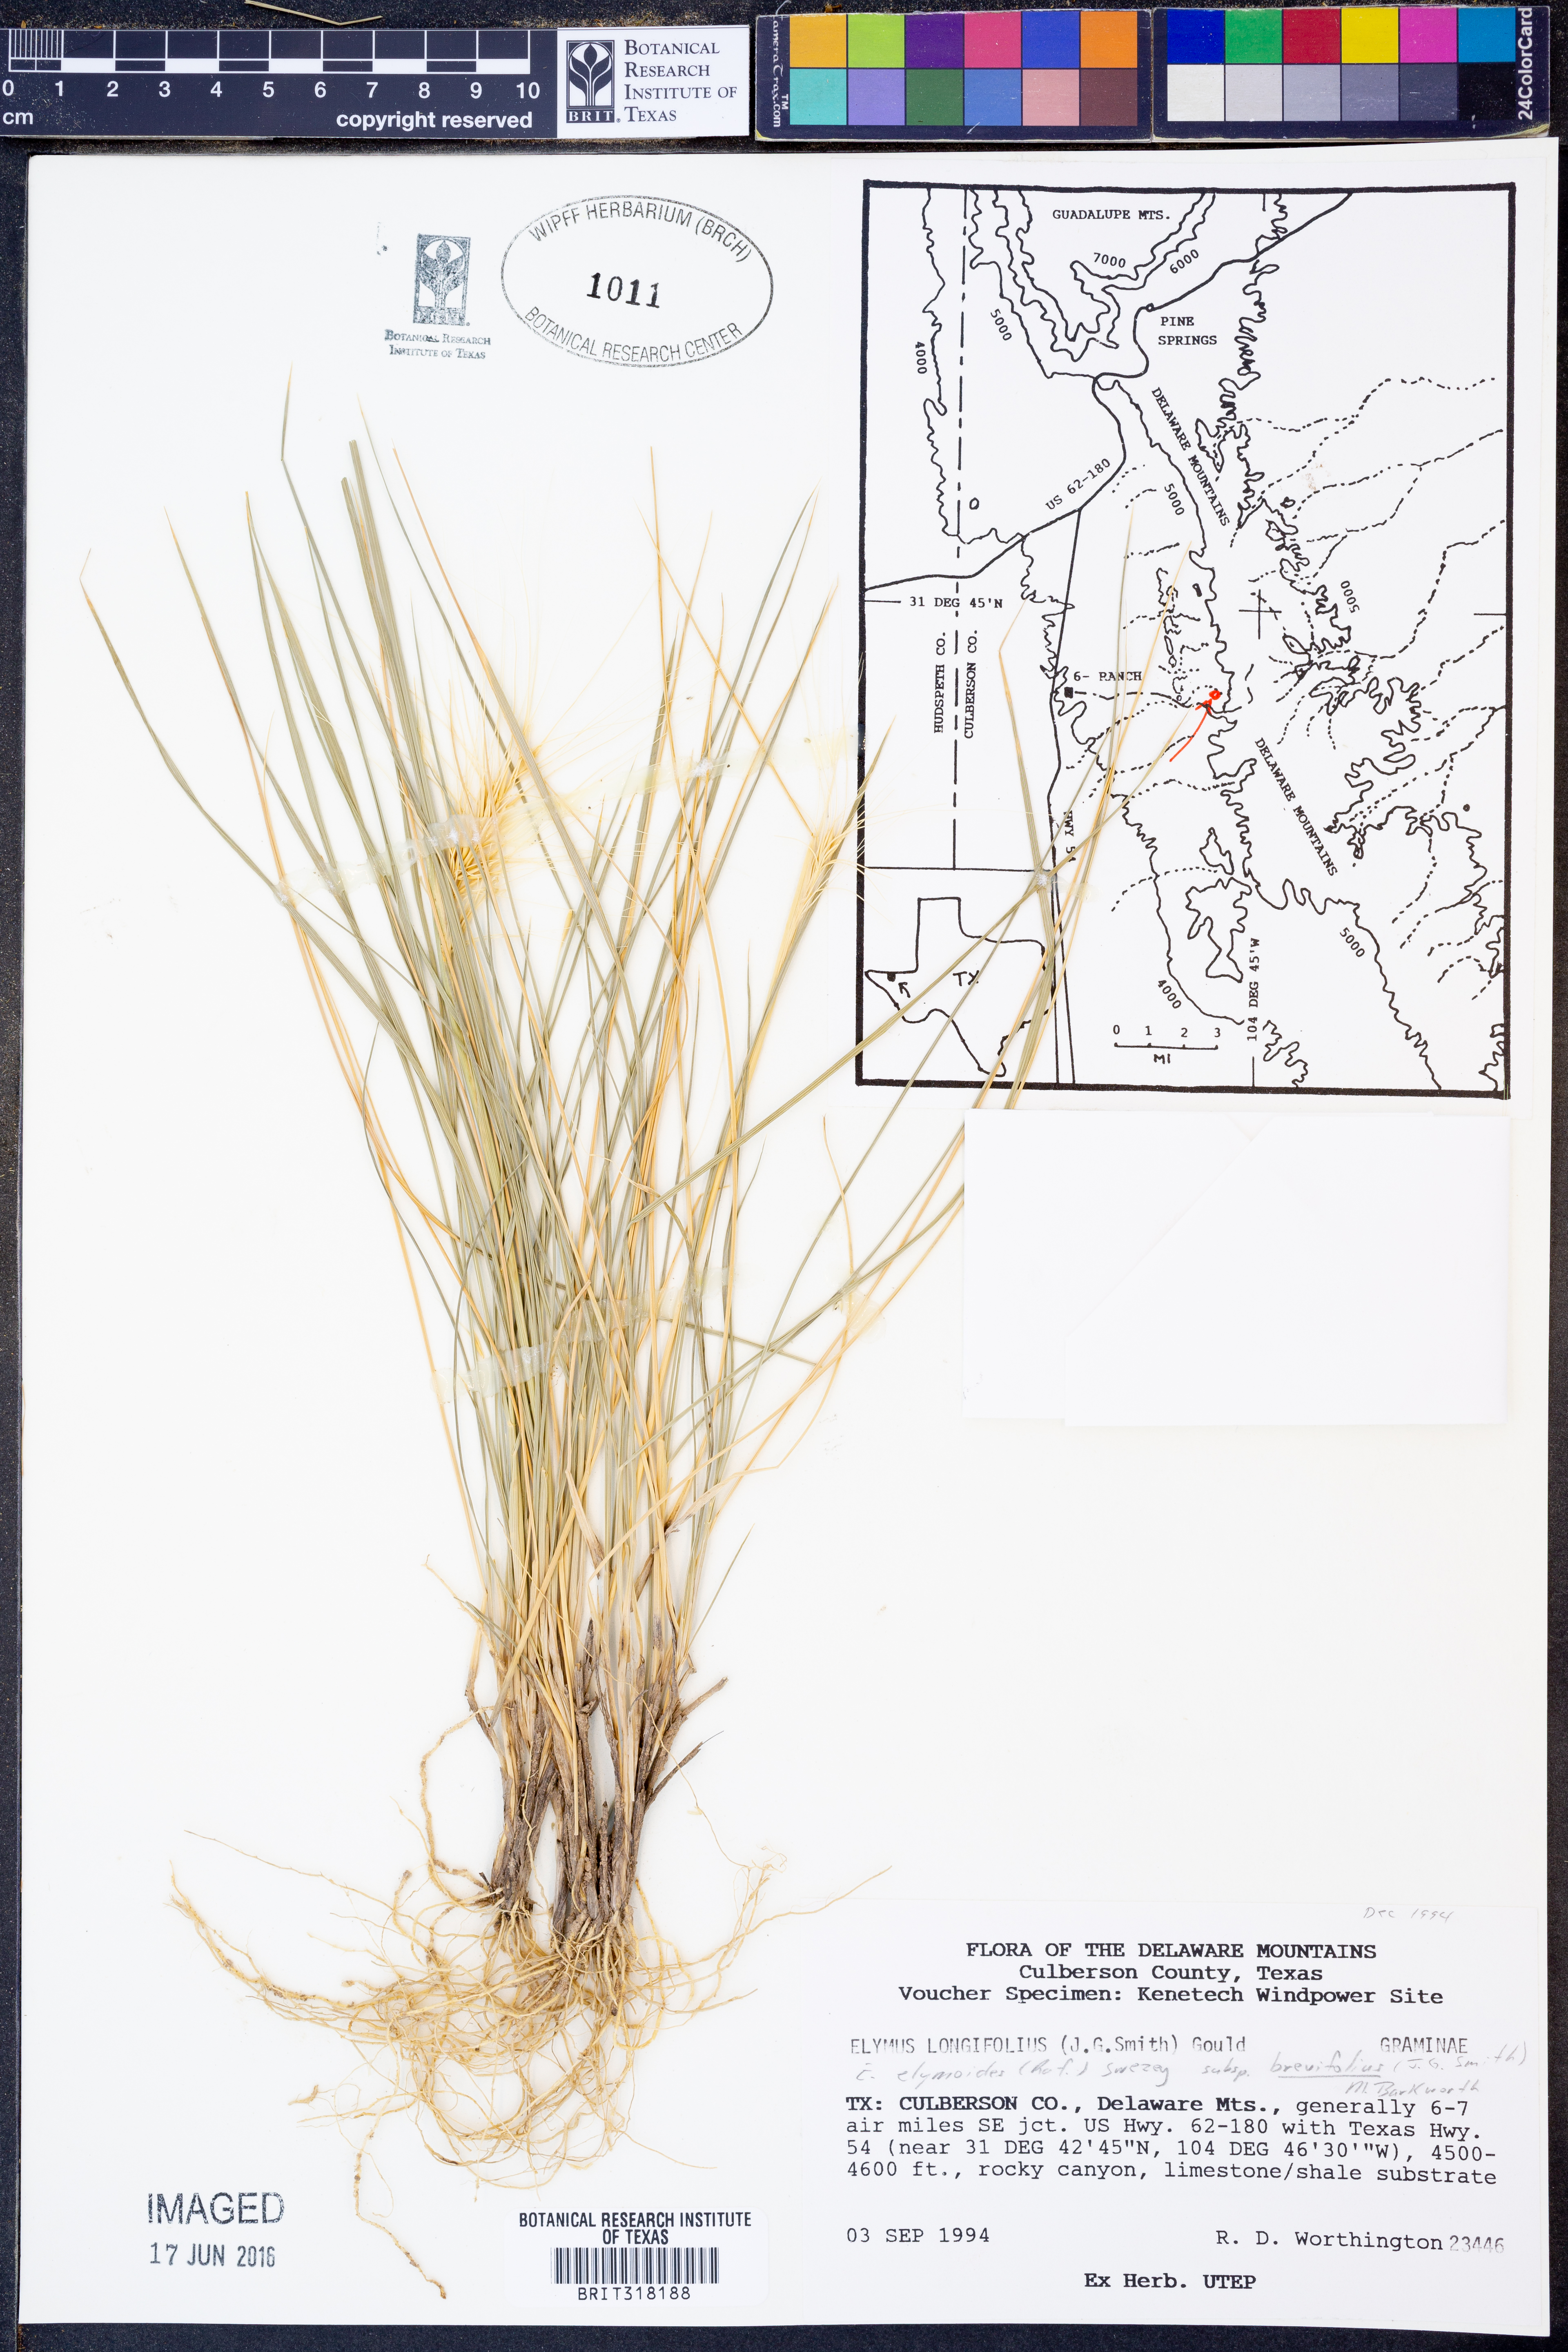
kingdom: Plantae
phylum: Tracheophyta
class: Liliopsida
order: Poales
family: Poaceae
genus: Elymus
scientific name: Elymus longifolius
